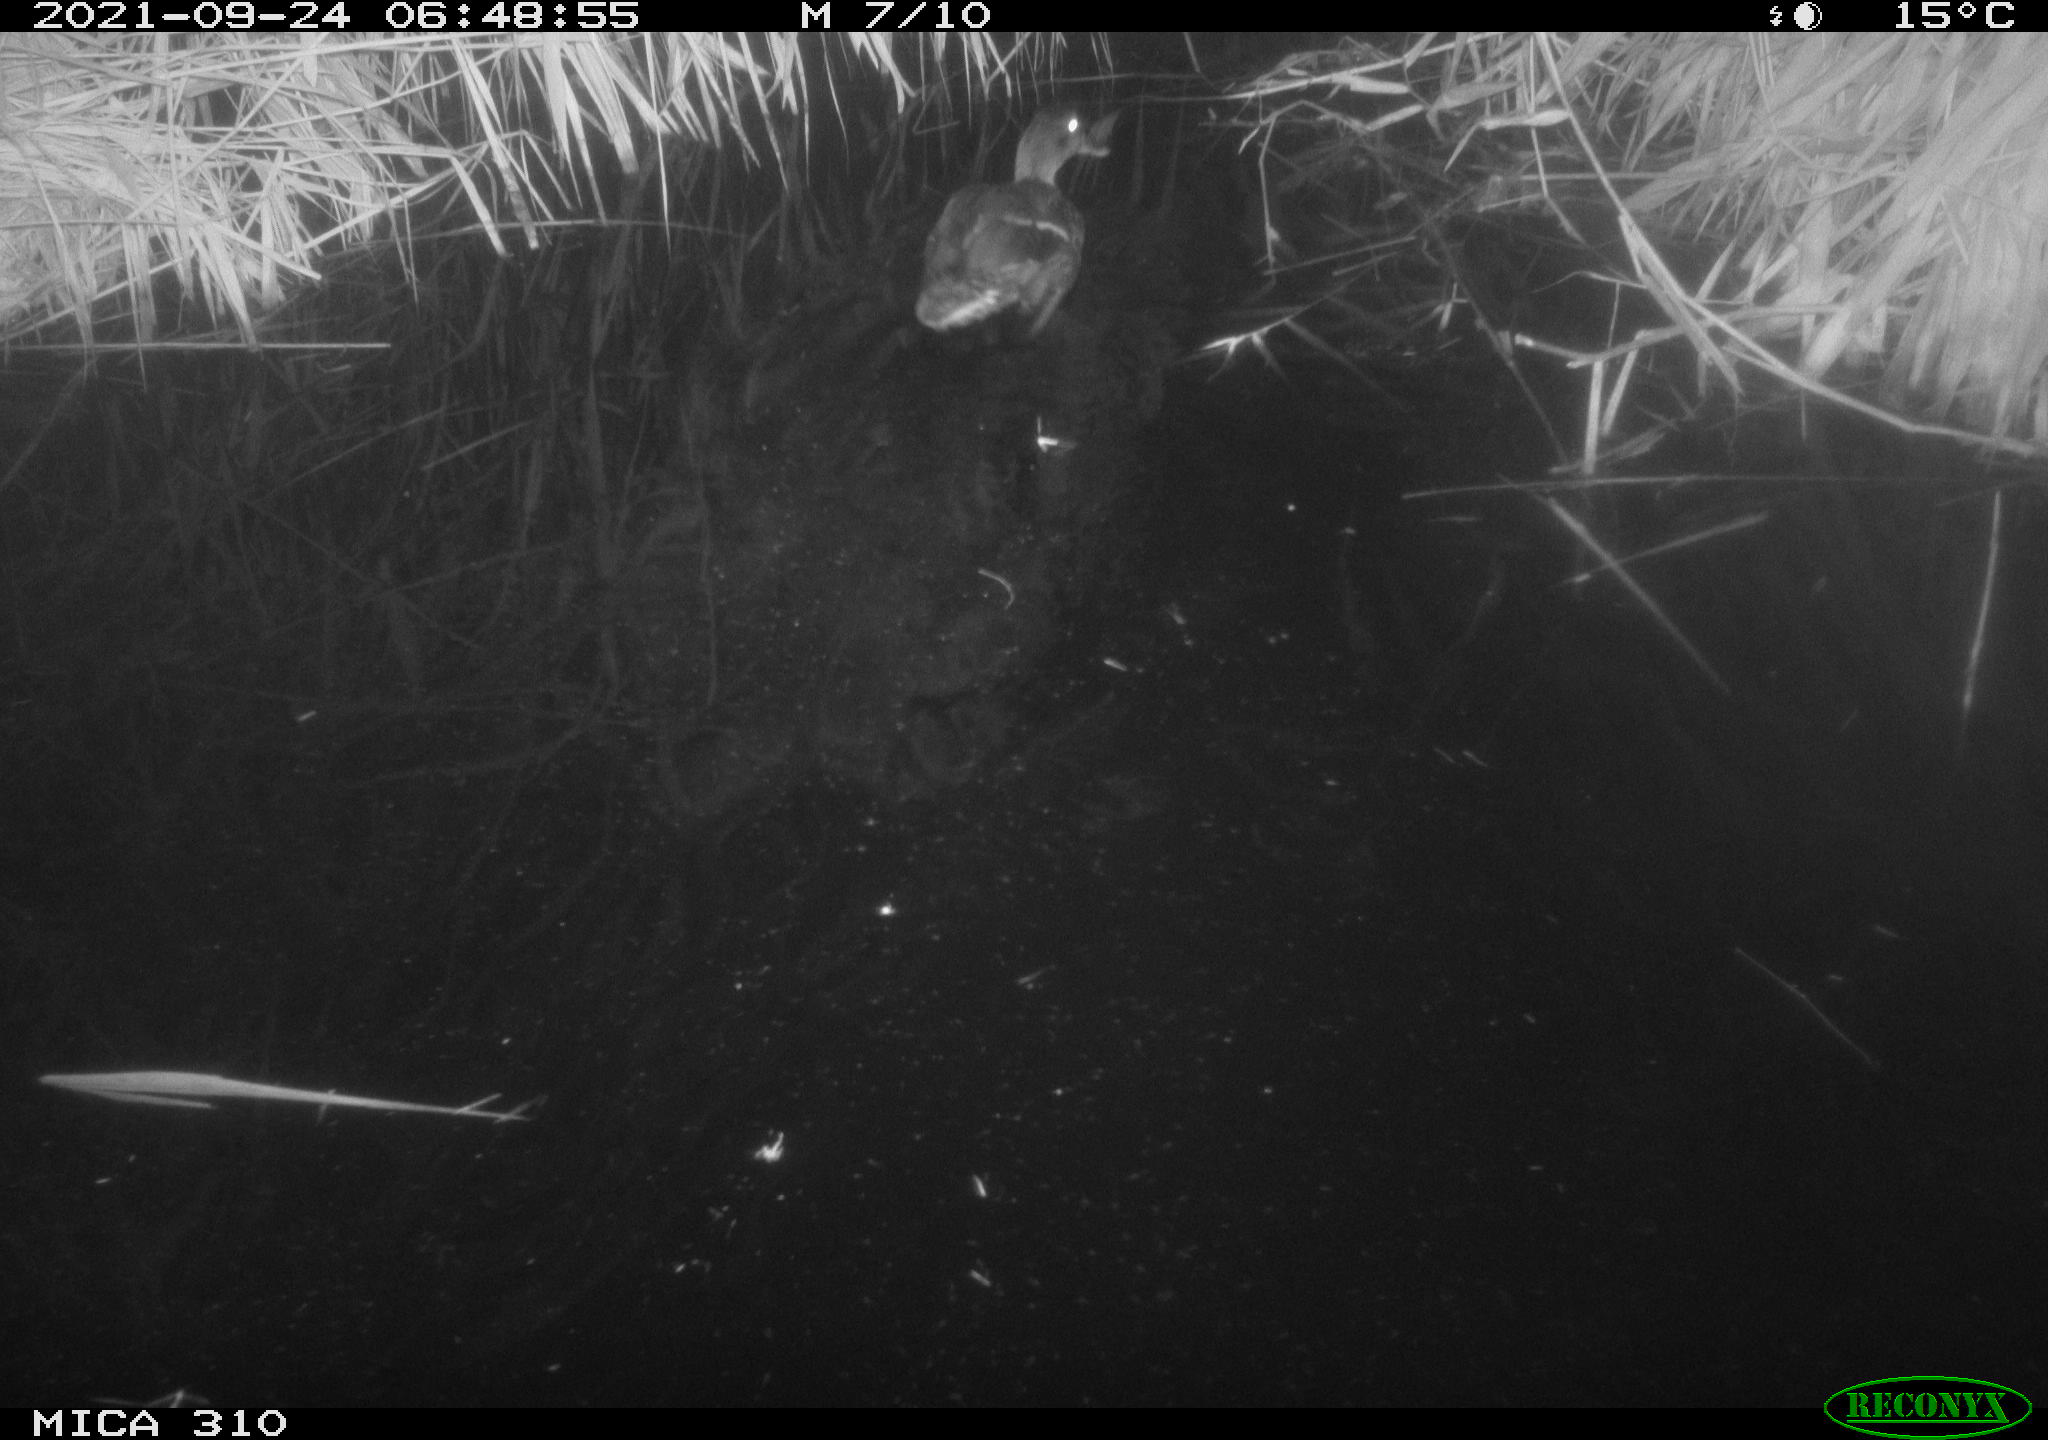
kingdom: Animalia
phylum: Chordata
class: Aves
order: Anseriformes
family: Anatidae
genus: Mareca
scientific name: Mareca strepera
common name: Gadwall
